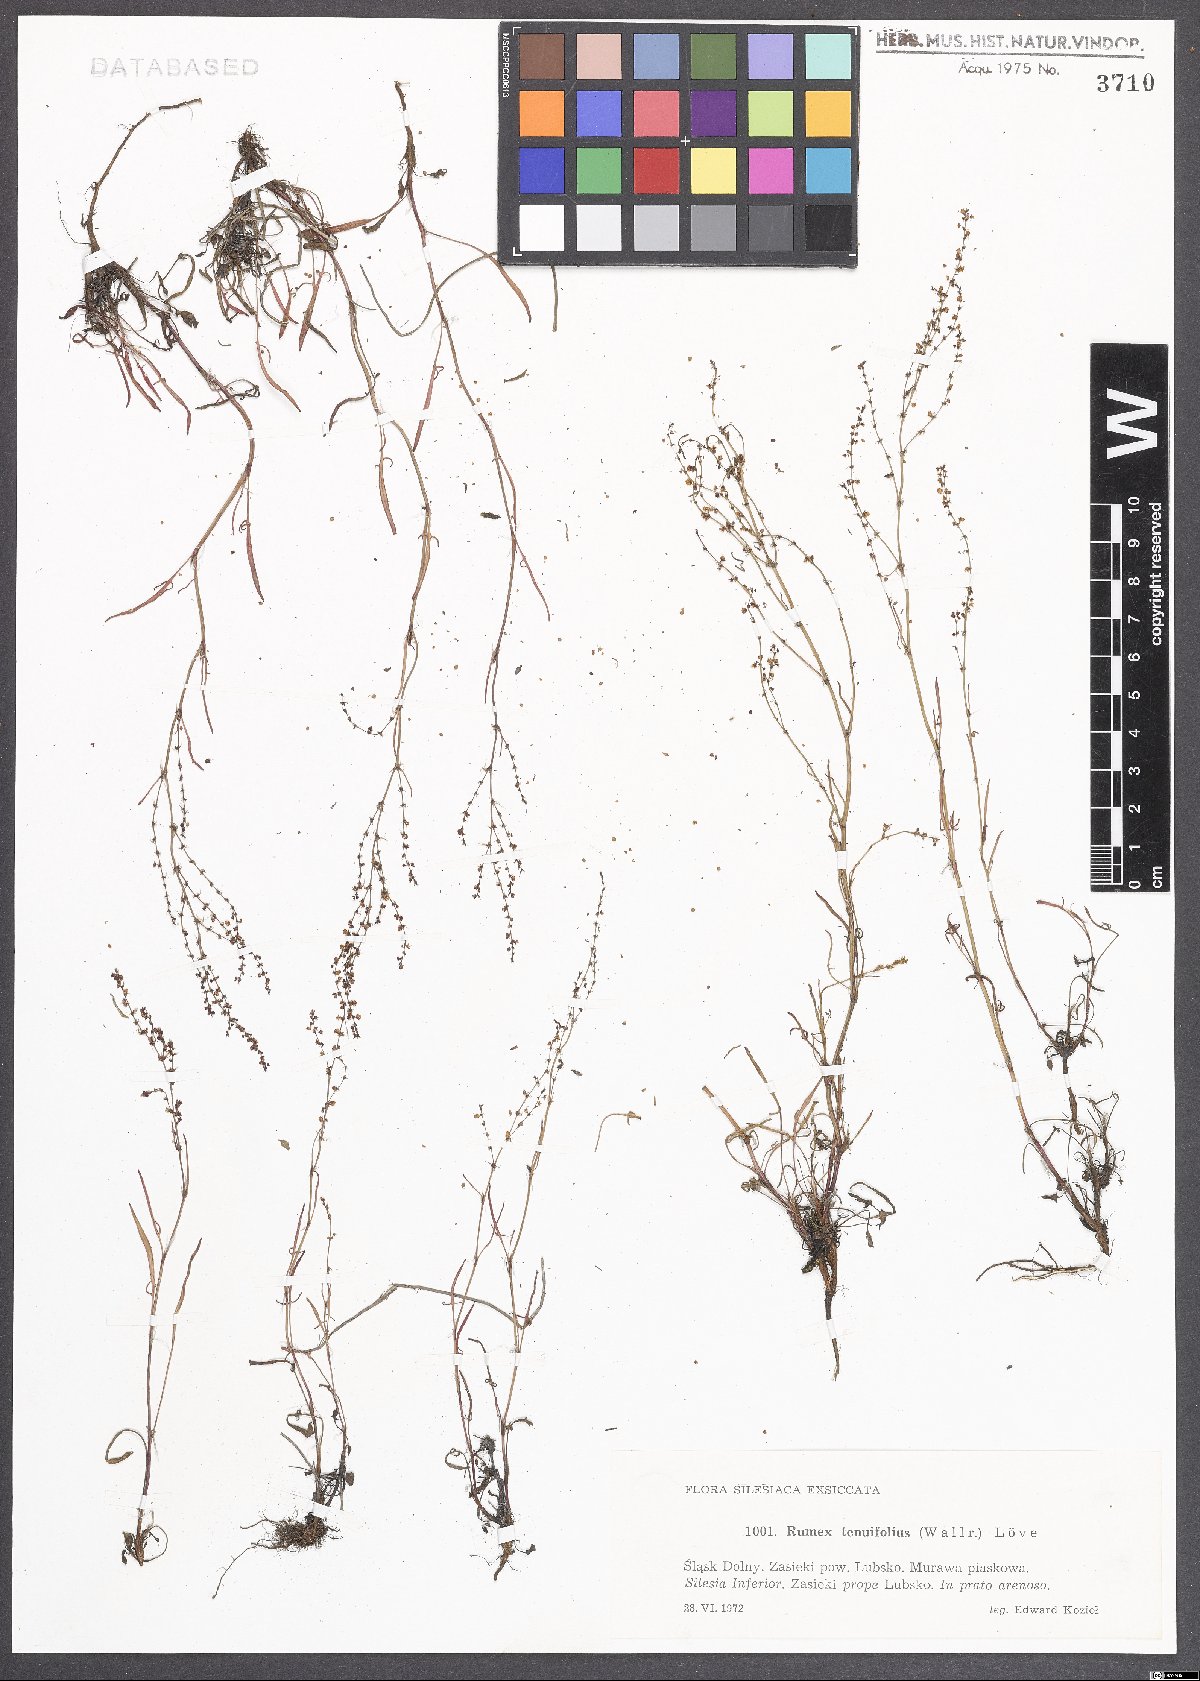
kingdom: Plantae
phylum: Tracheophyta
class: Magnoliopsida
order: Caryophyllales
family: Polygonaceae
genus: Rumex
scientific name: Rumex acetosella
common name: Common sheep sorrel
